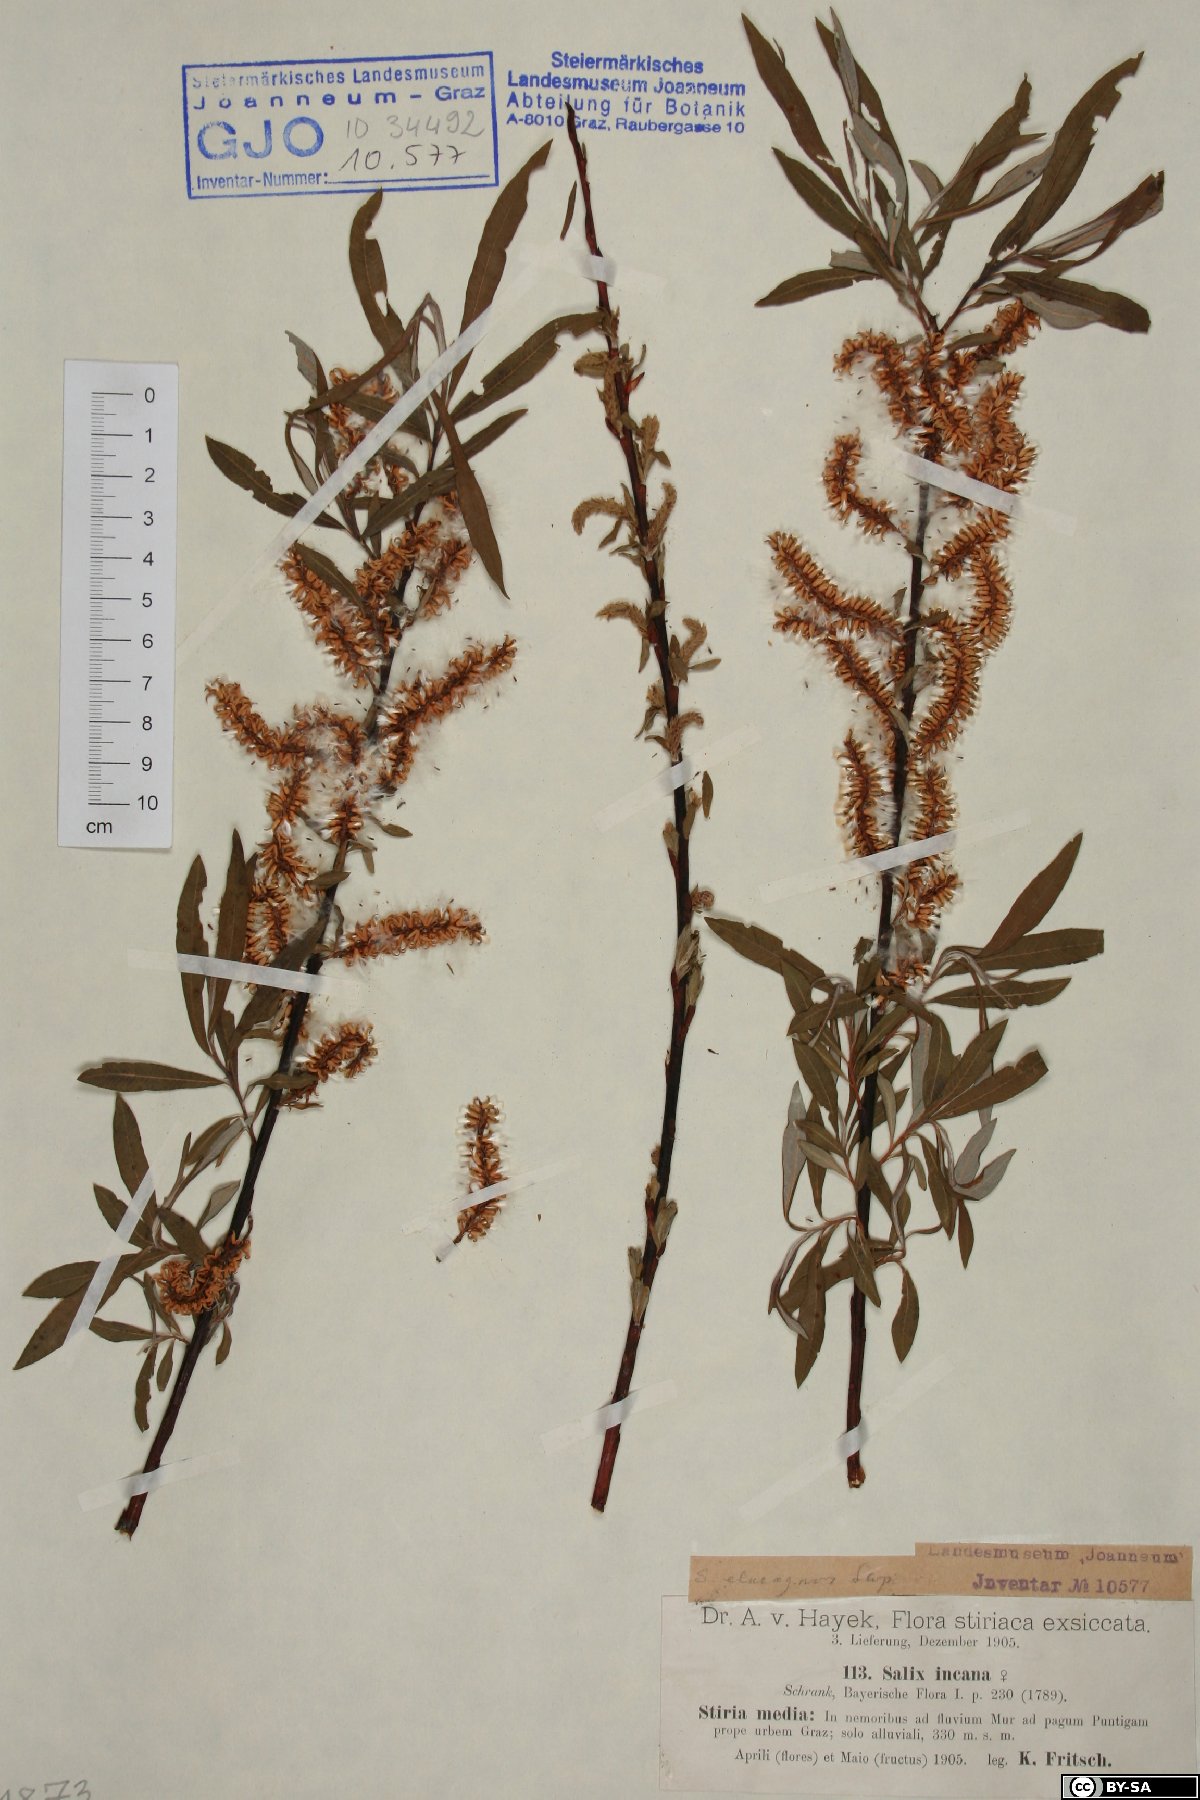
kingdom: Plantae
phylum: Tracheophyta
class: Magnoliopsida
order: Malpighiales
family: Salicaceae
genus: Salix
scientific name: Salix eleagnos
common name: Elaeagnus willow
